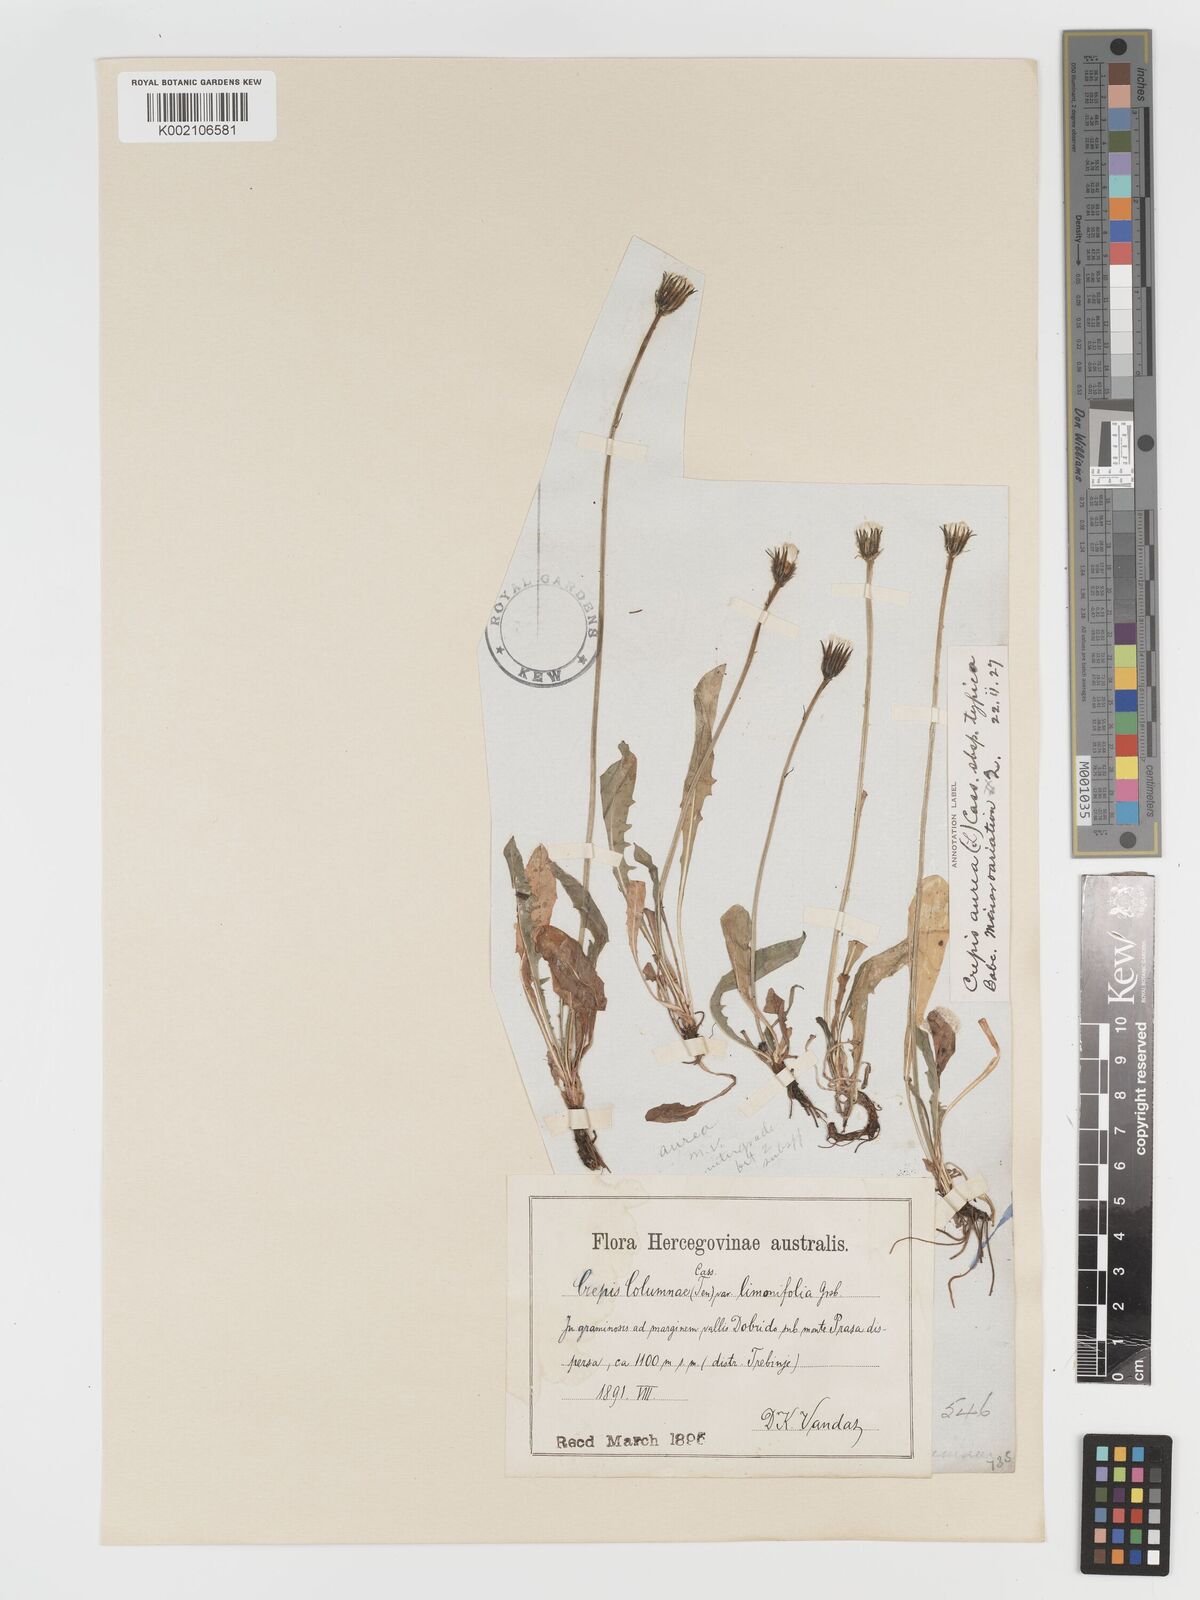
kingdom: Plantae
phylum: Tracheophyta
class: Magnoliopsida
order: Asterales
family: Asteraceae
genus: Crepis
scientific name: Crepis aurea
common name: Golden hawk's-beard
